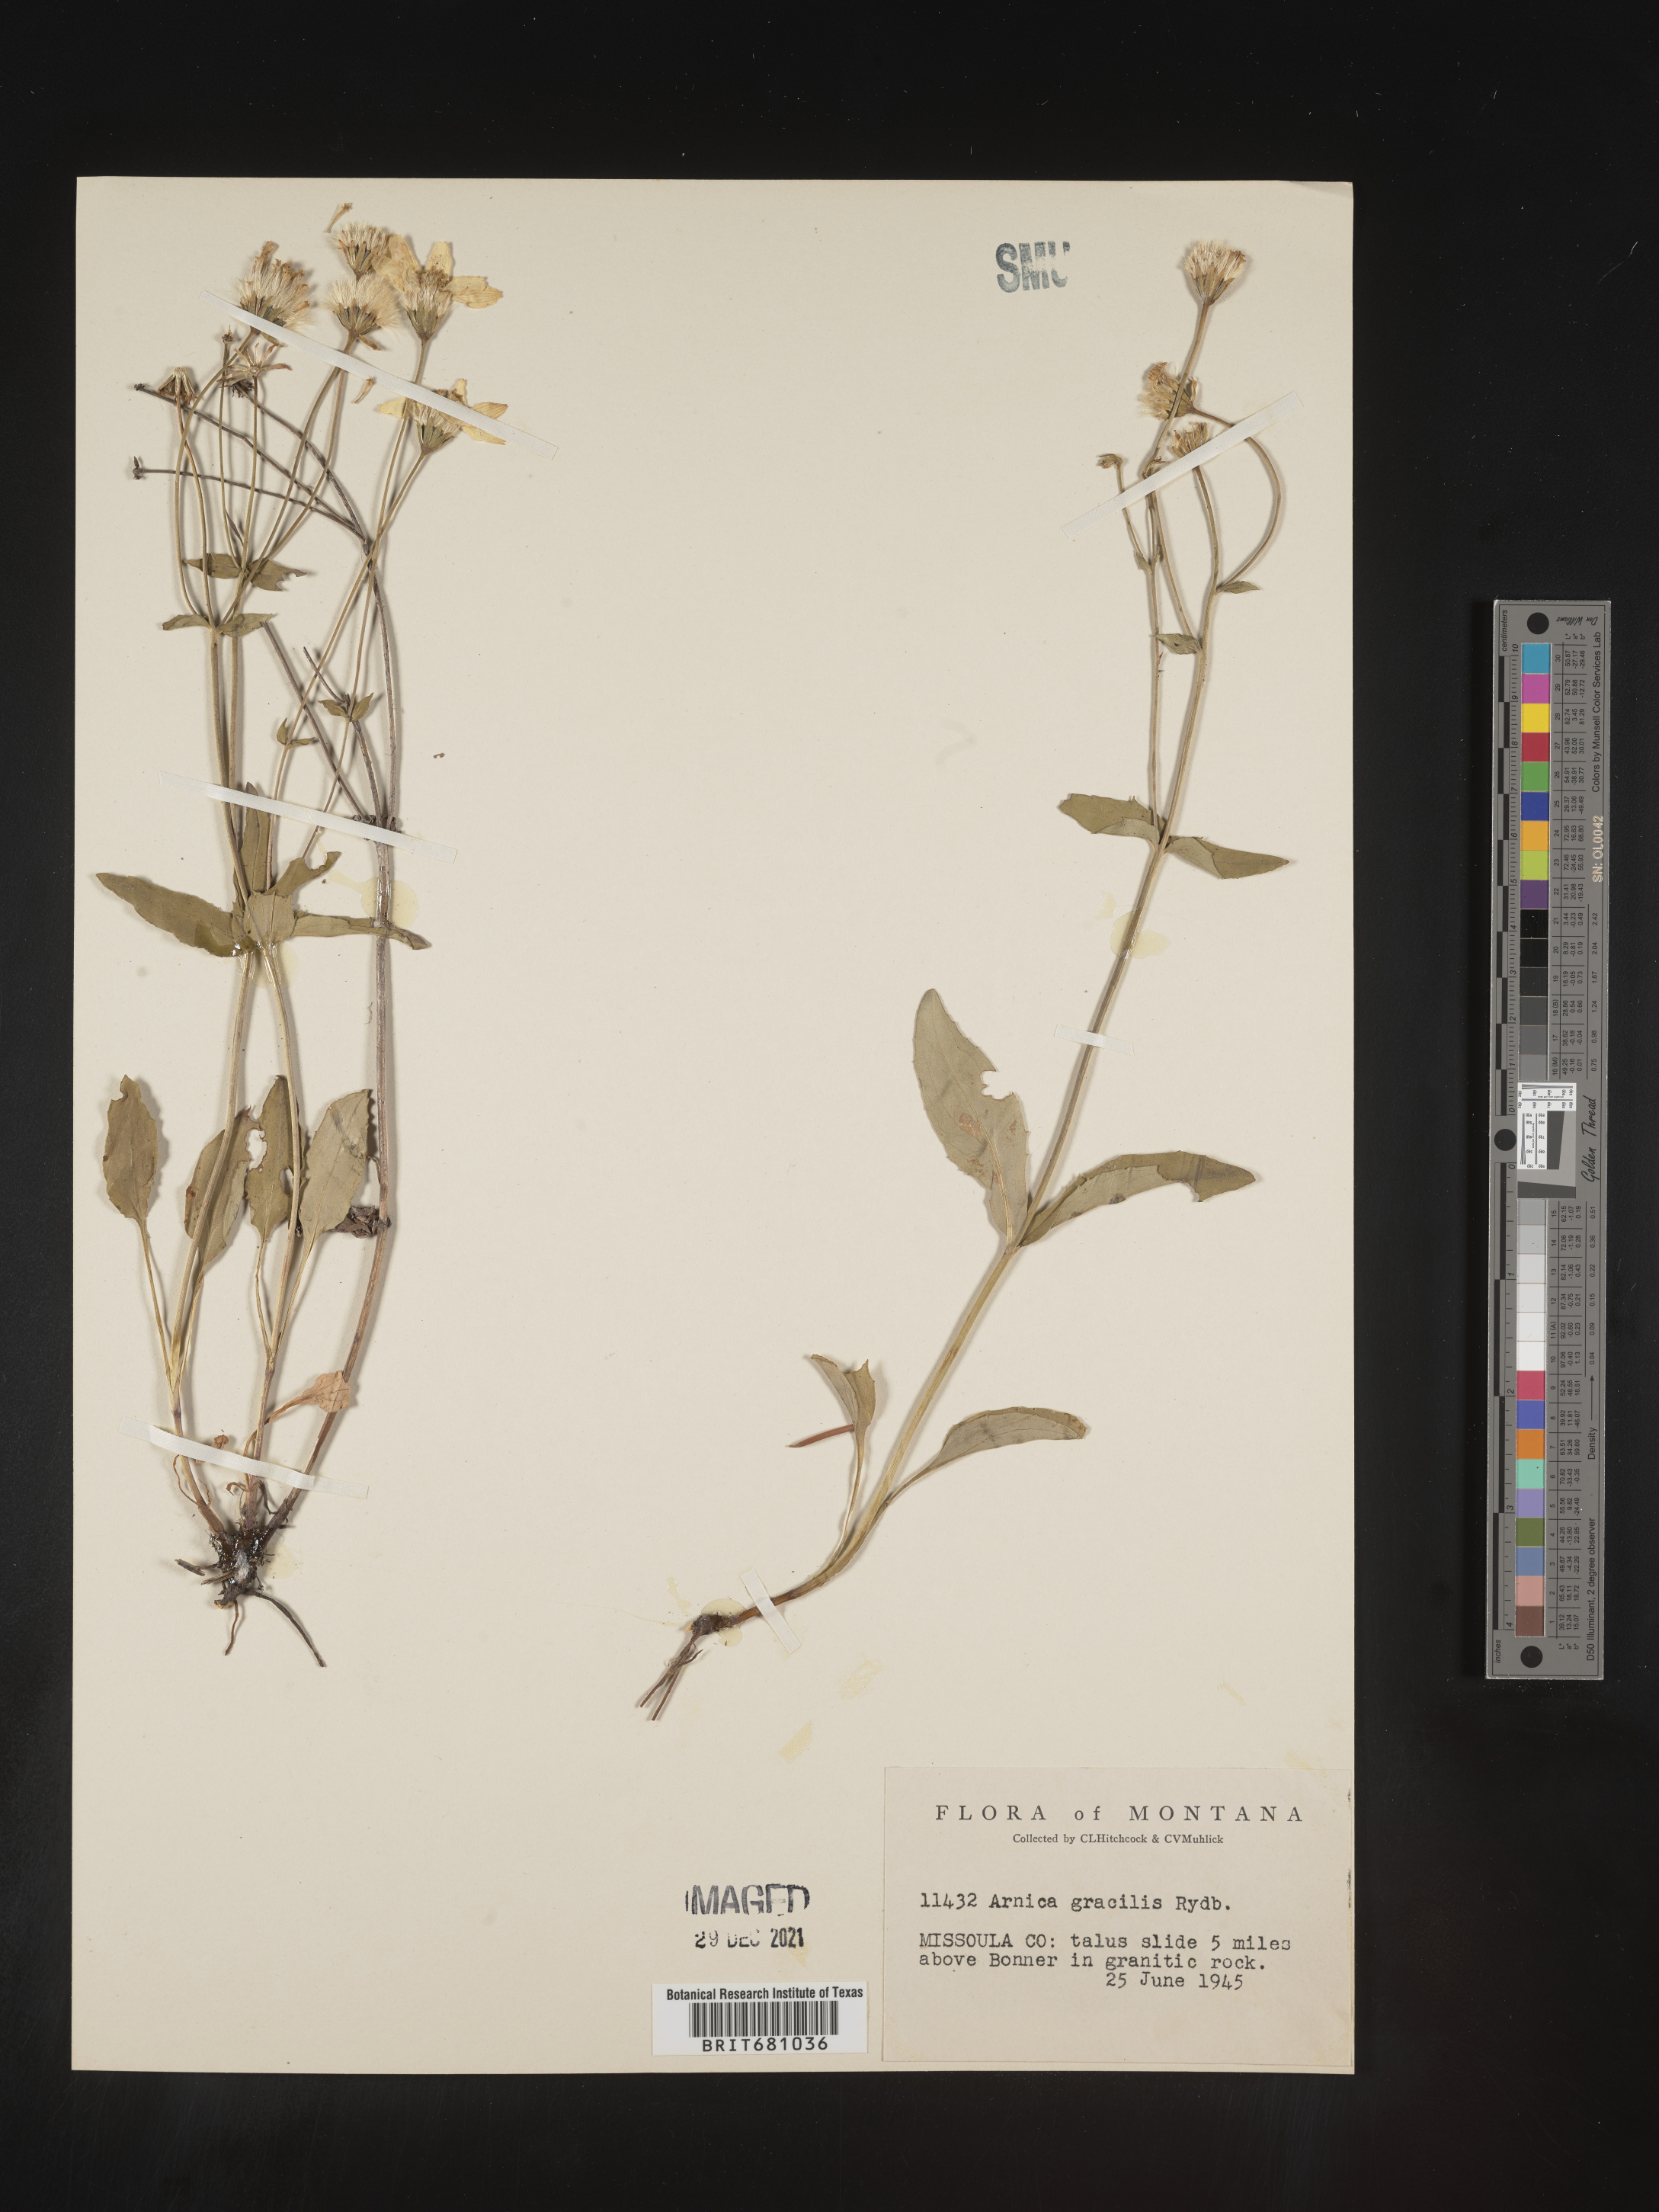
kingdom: Plantae
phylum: Tracheophyta
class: Magnoliopsida
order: Asterales
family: Asteraceae
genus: Arnica
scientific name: Arnica
